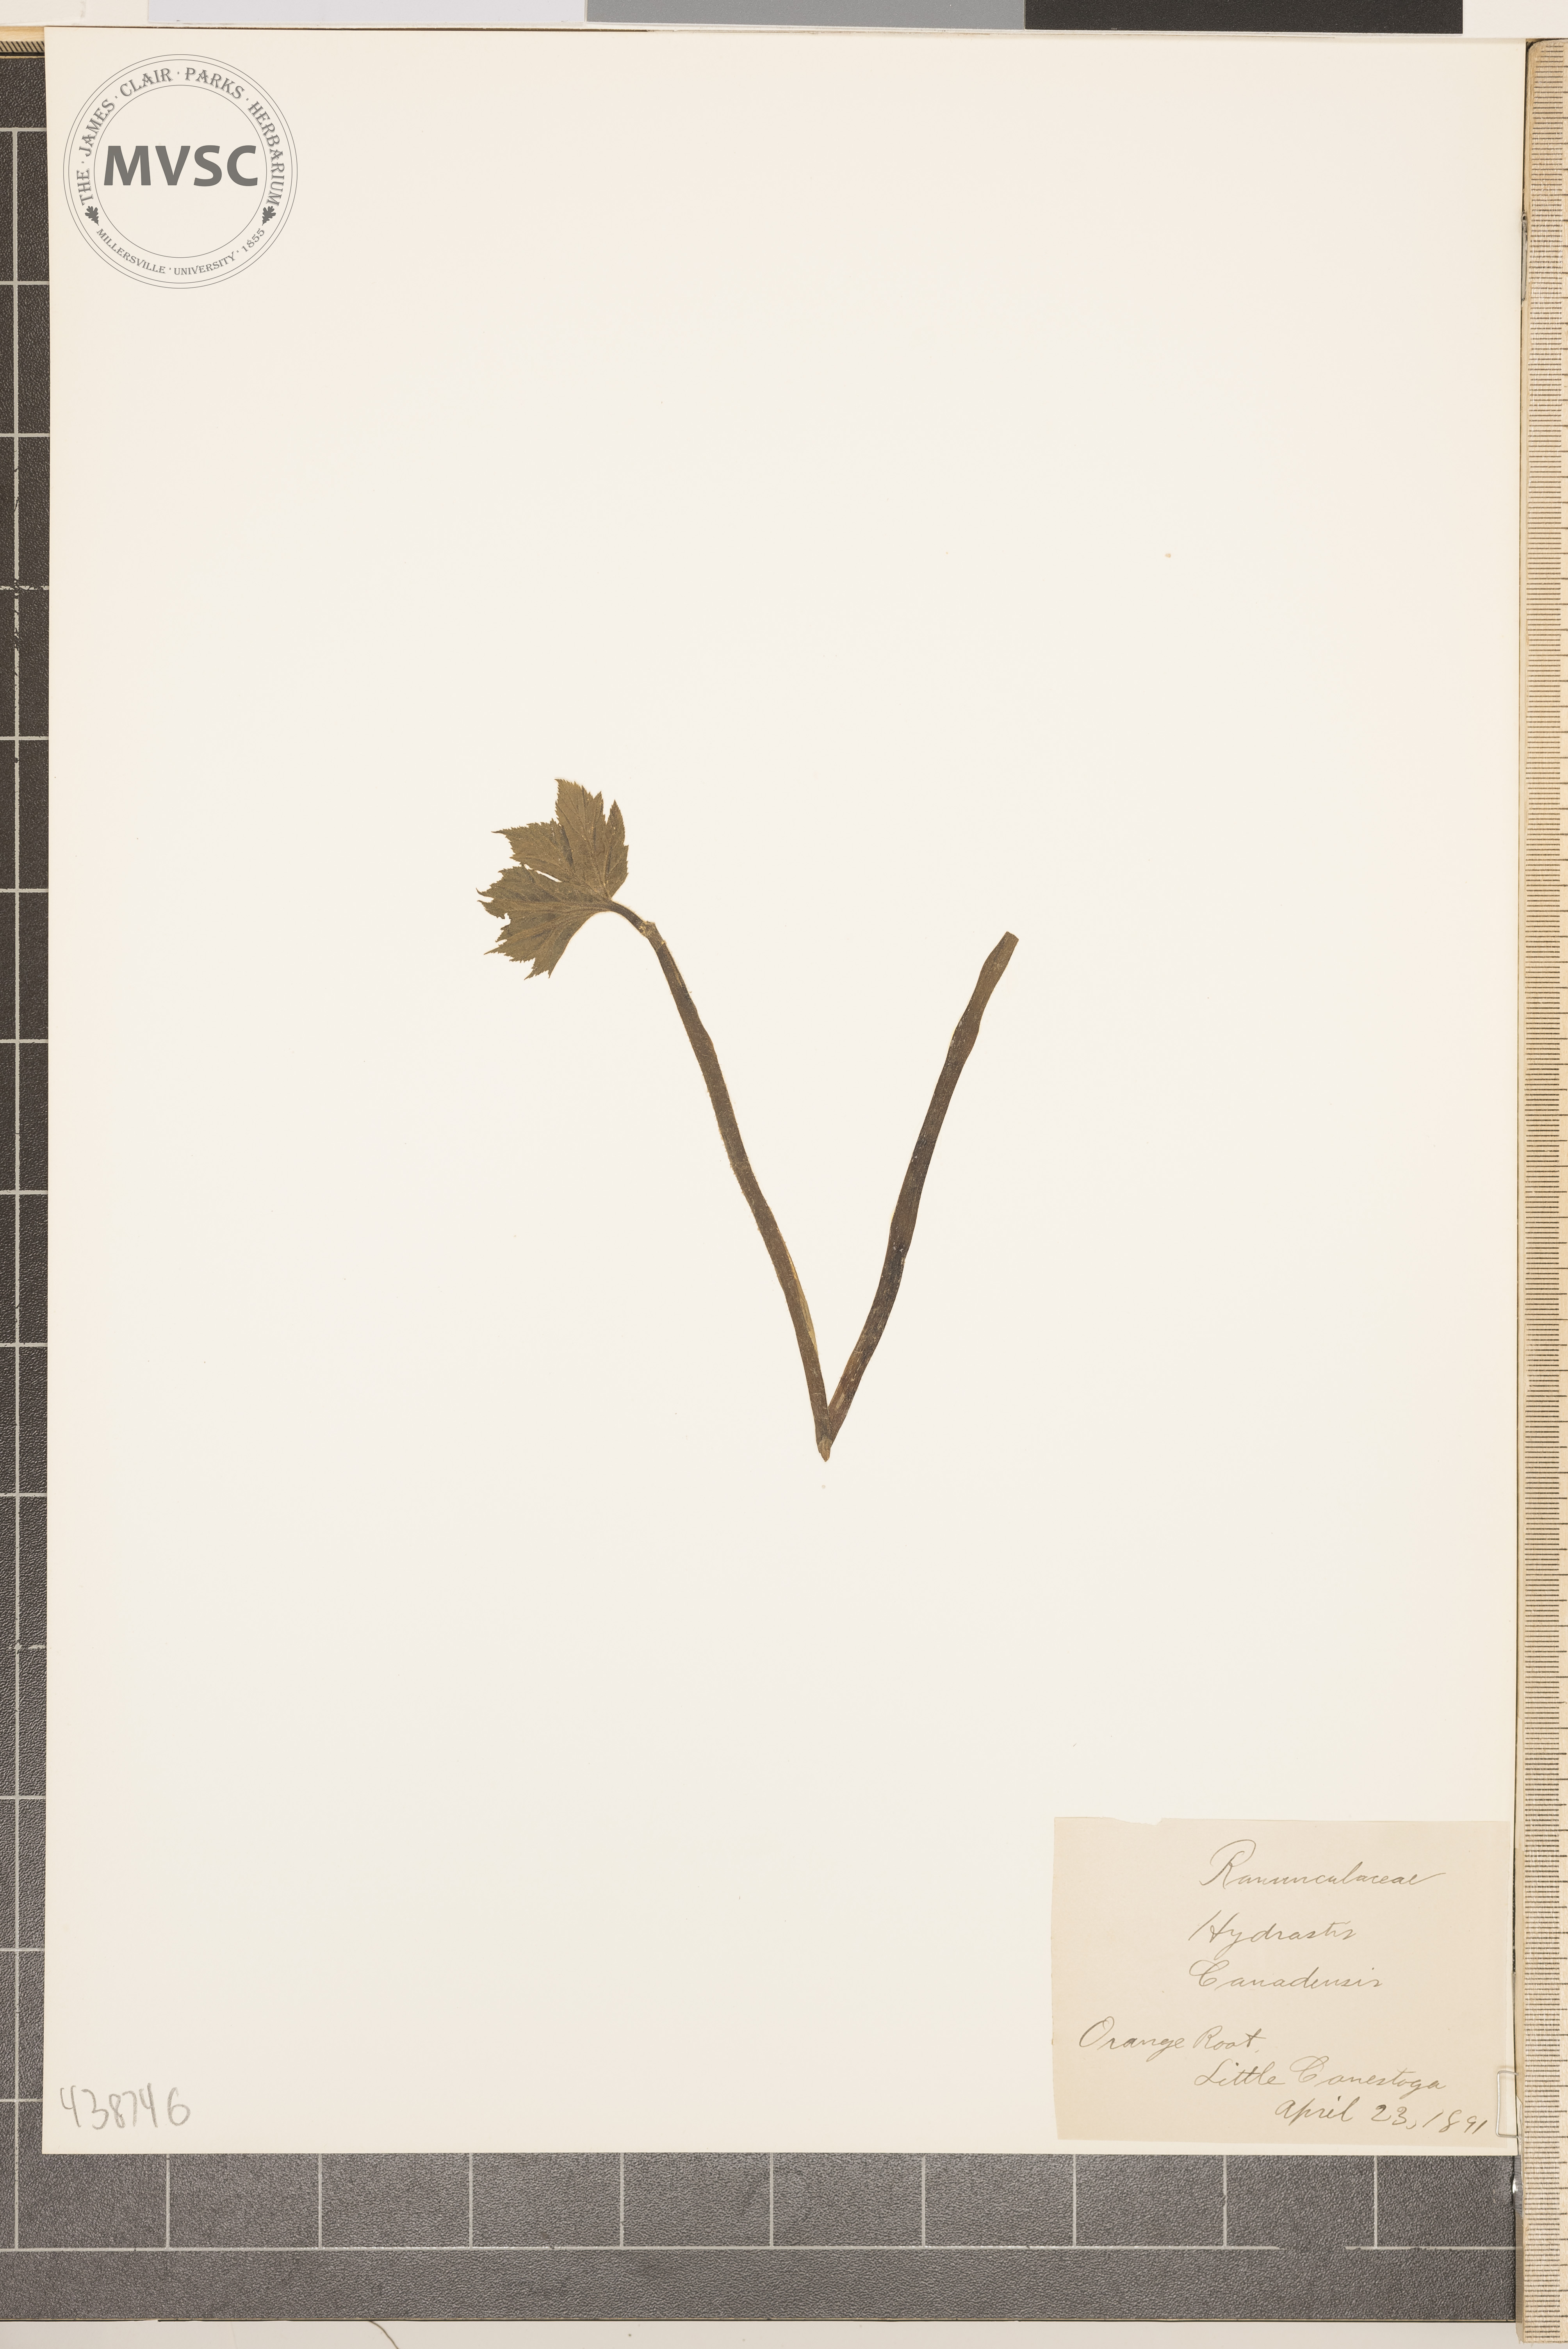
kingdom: Plantae
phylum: Tracheophyta
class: Magnoliopsida
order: Ranunculales
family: Ranunculaceae
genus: Hydrastis
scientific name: Hydrastis canadensis
